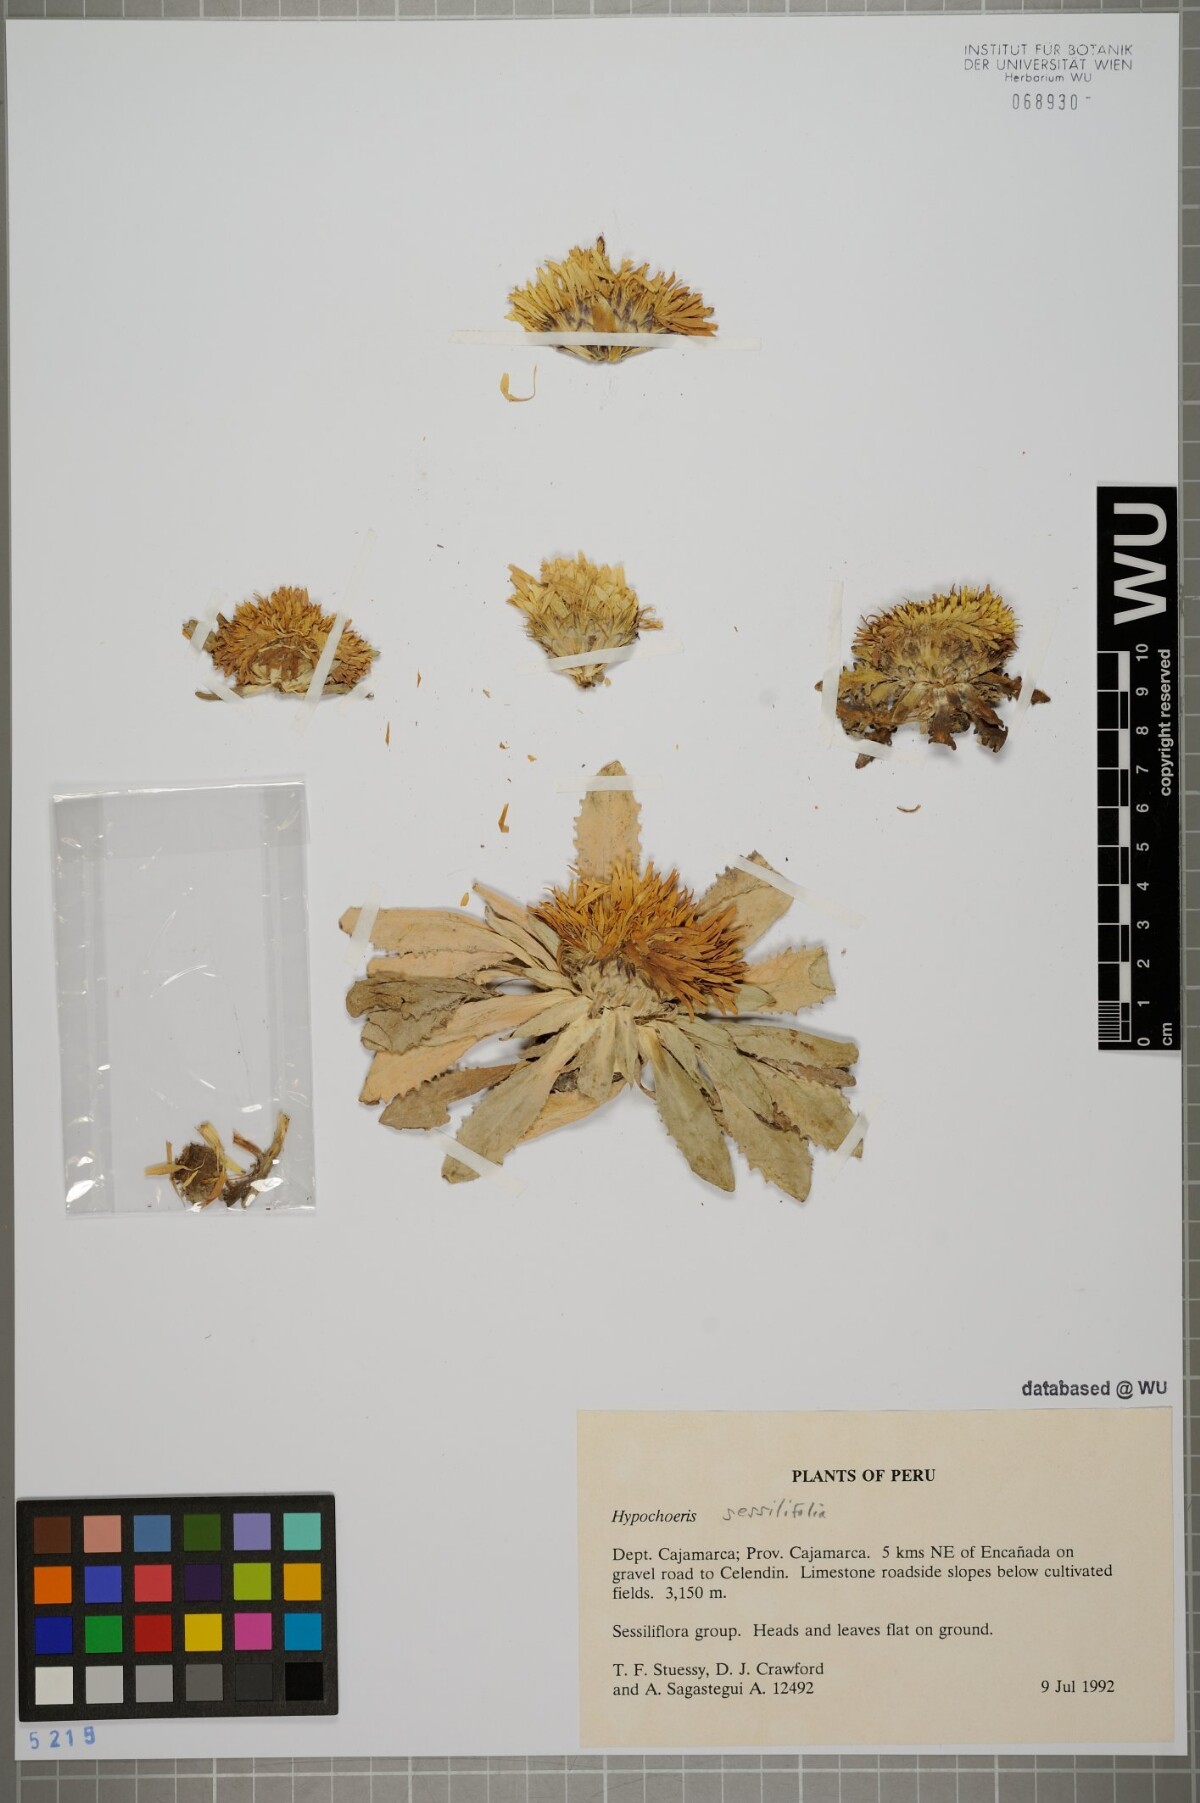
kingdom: Plantae
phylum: Tracheophyta
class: Magnoliopsida
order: Asterales
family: Asteraceae
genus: Hypochaeris
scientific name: Hypochaeris sessiliflora
